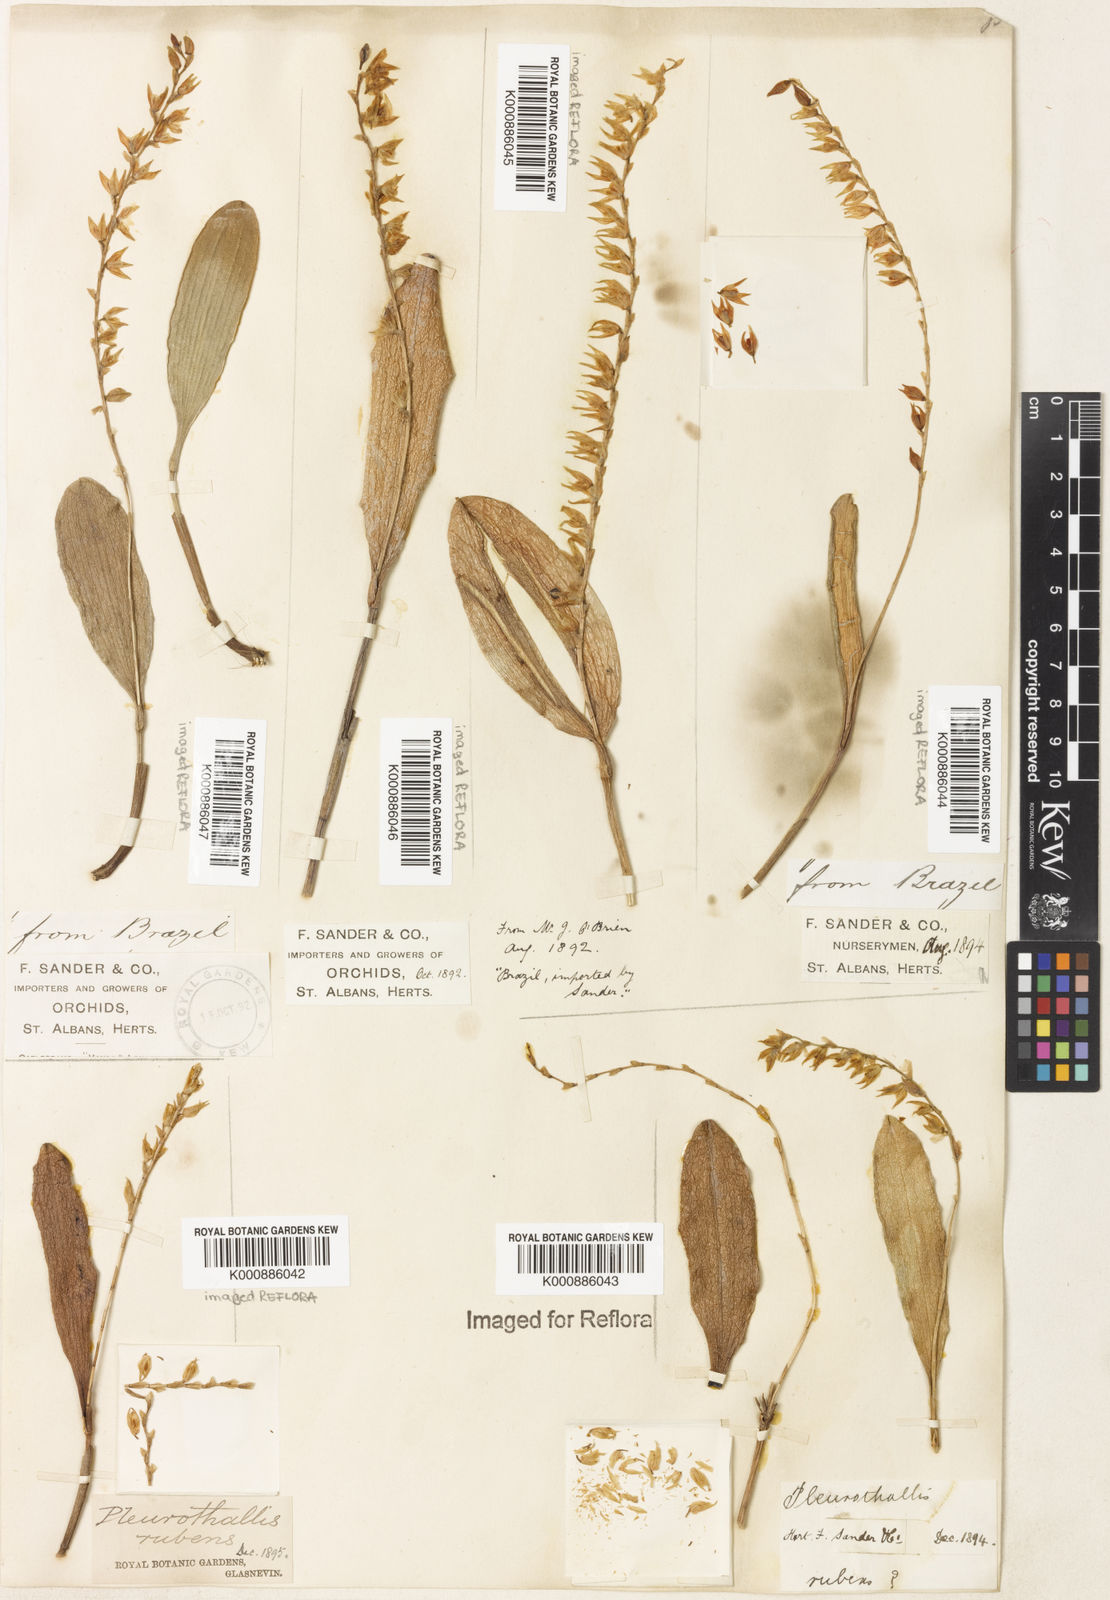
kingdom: Plantae
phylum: Tracheophyta
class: Liliopsida
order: Asparagales
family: Orchidaceae
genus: Stelis
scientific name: Stelis montserratii
